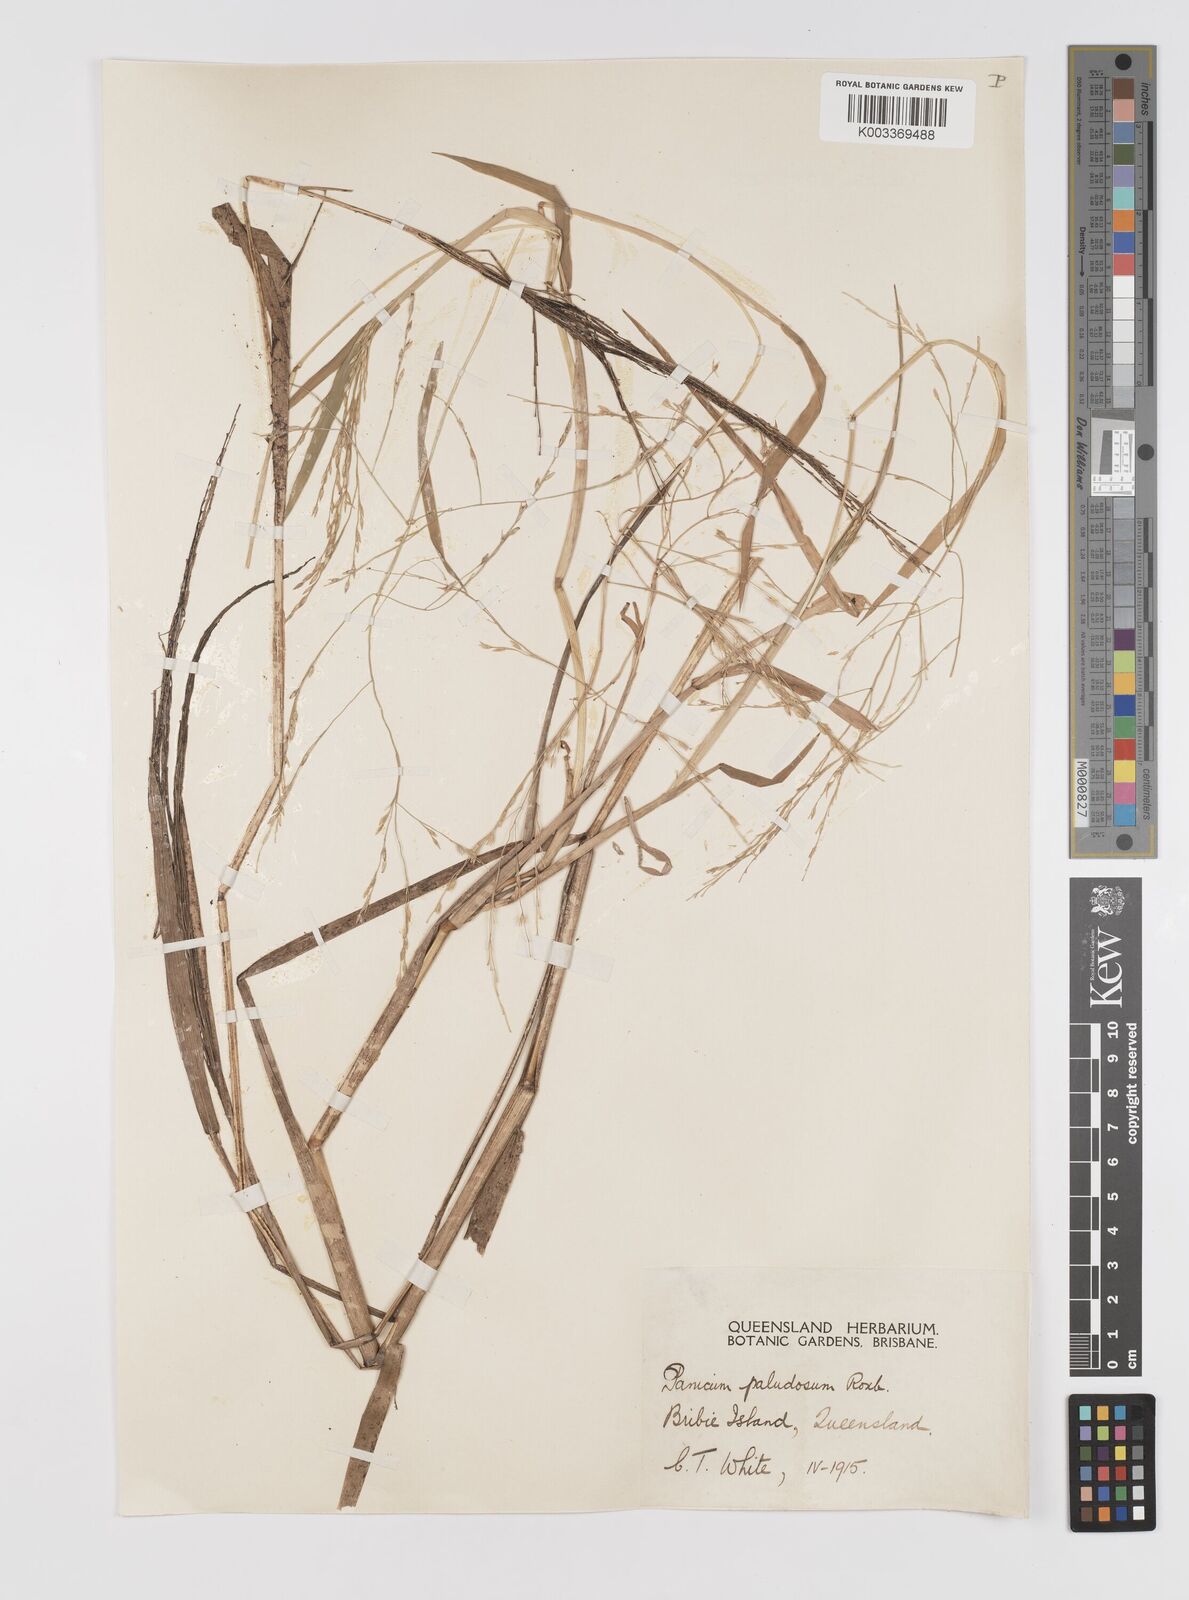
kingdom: Plantae
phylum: Tracheophyta
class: Liliopsida
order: Poales
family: Poaceae
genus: Louisiella
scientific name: Louisiella paludosa
